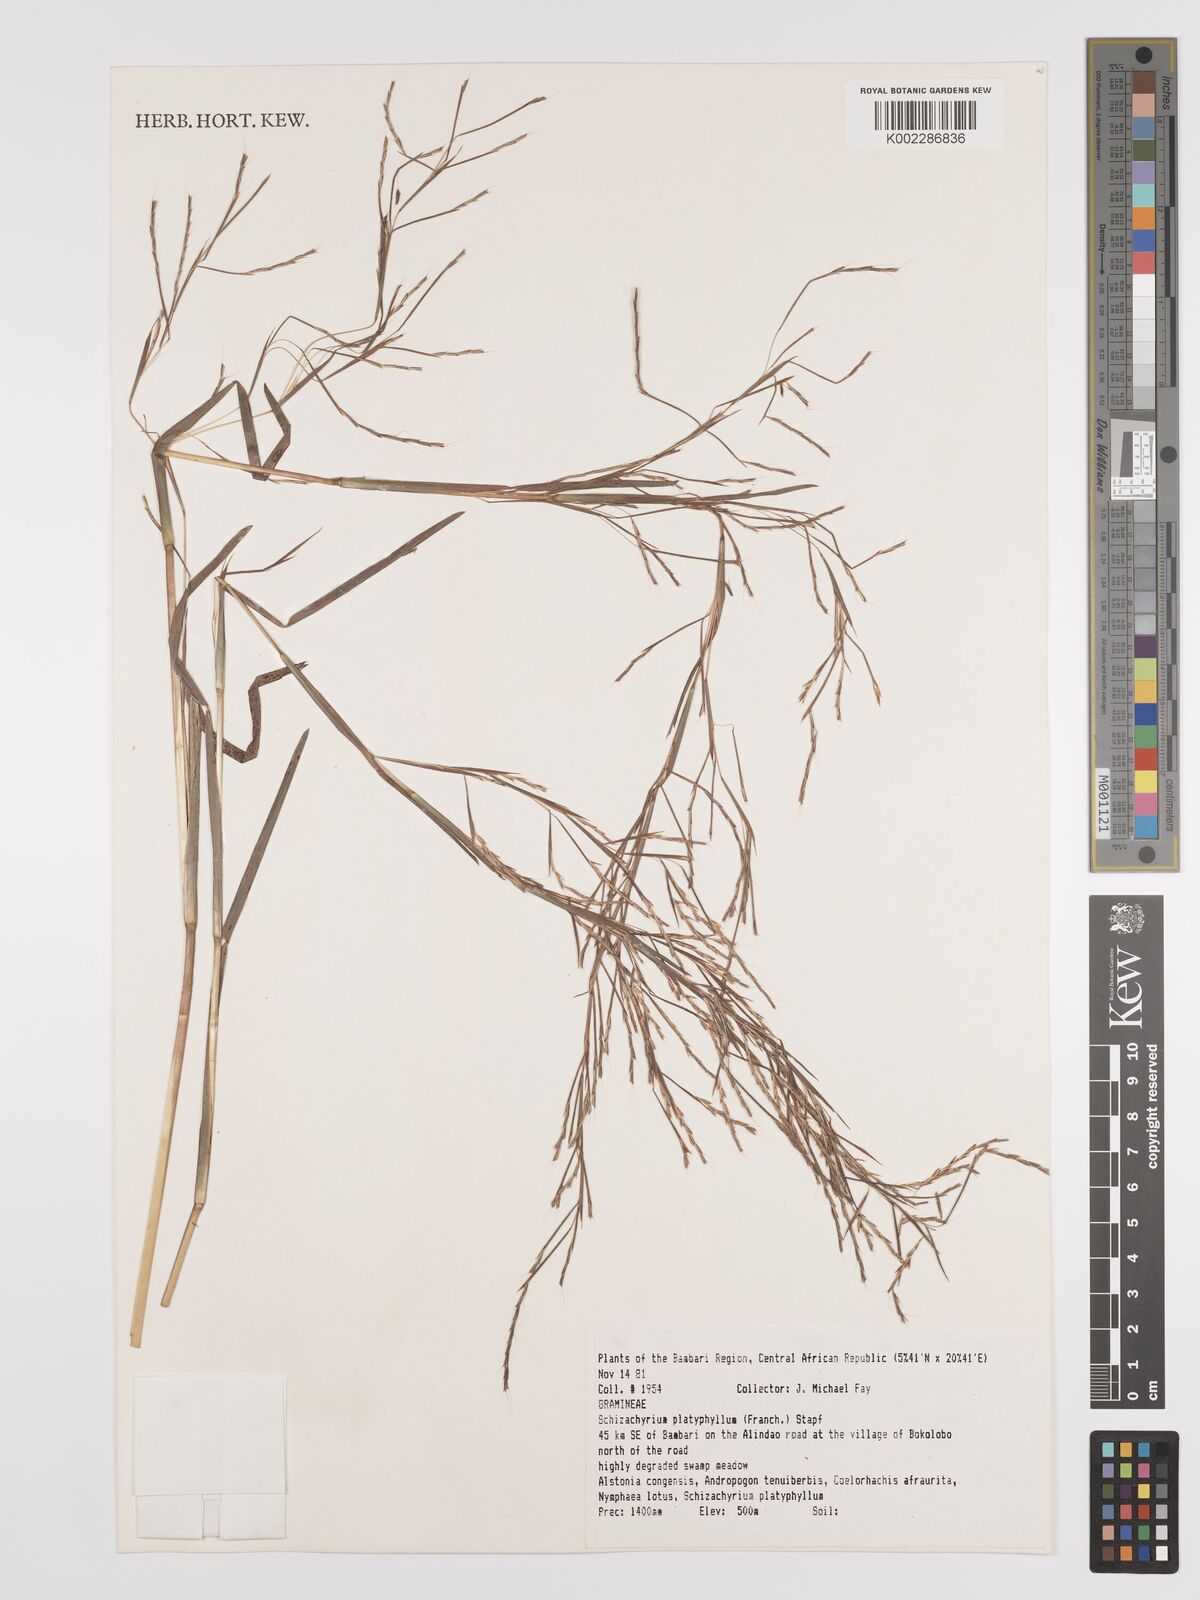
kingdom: Plantae
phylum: Tracheophyta
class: Liliopsida
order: Poales
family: Poaceae
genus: Schizachyrium
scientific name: Schizachyrium platyphyllum
